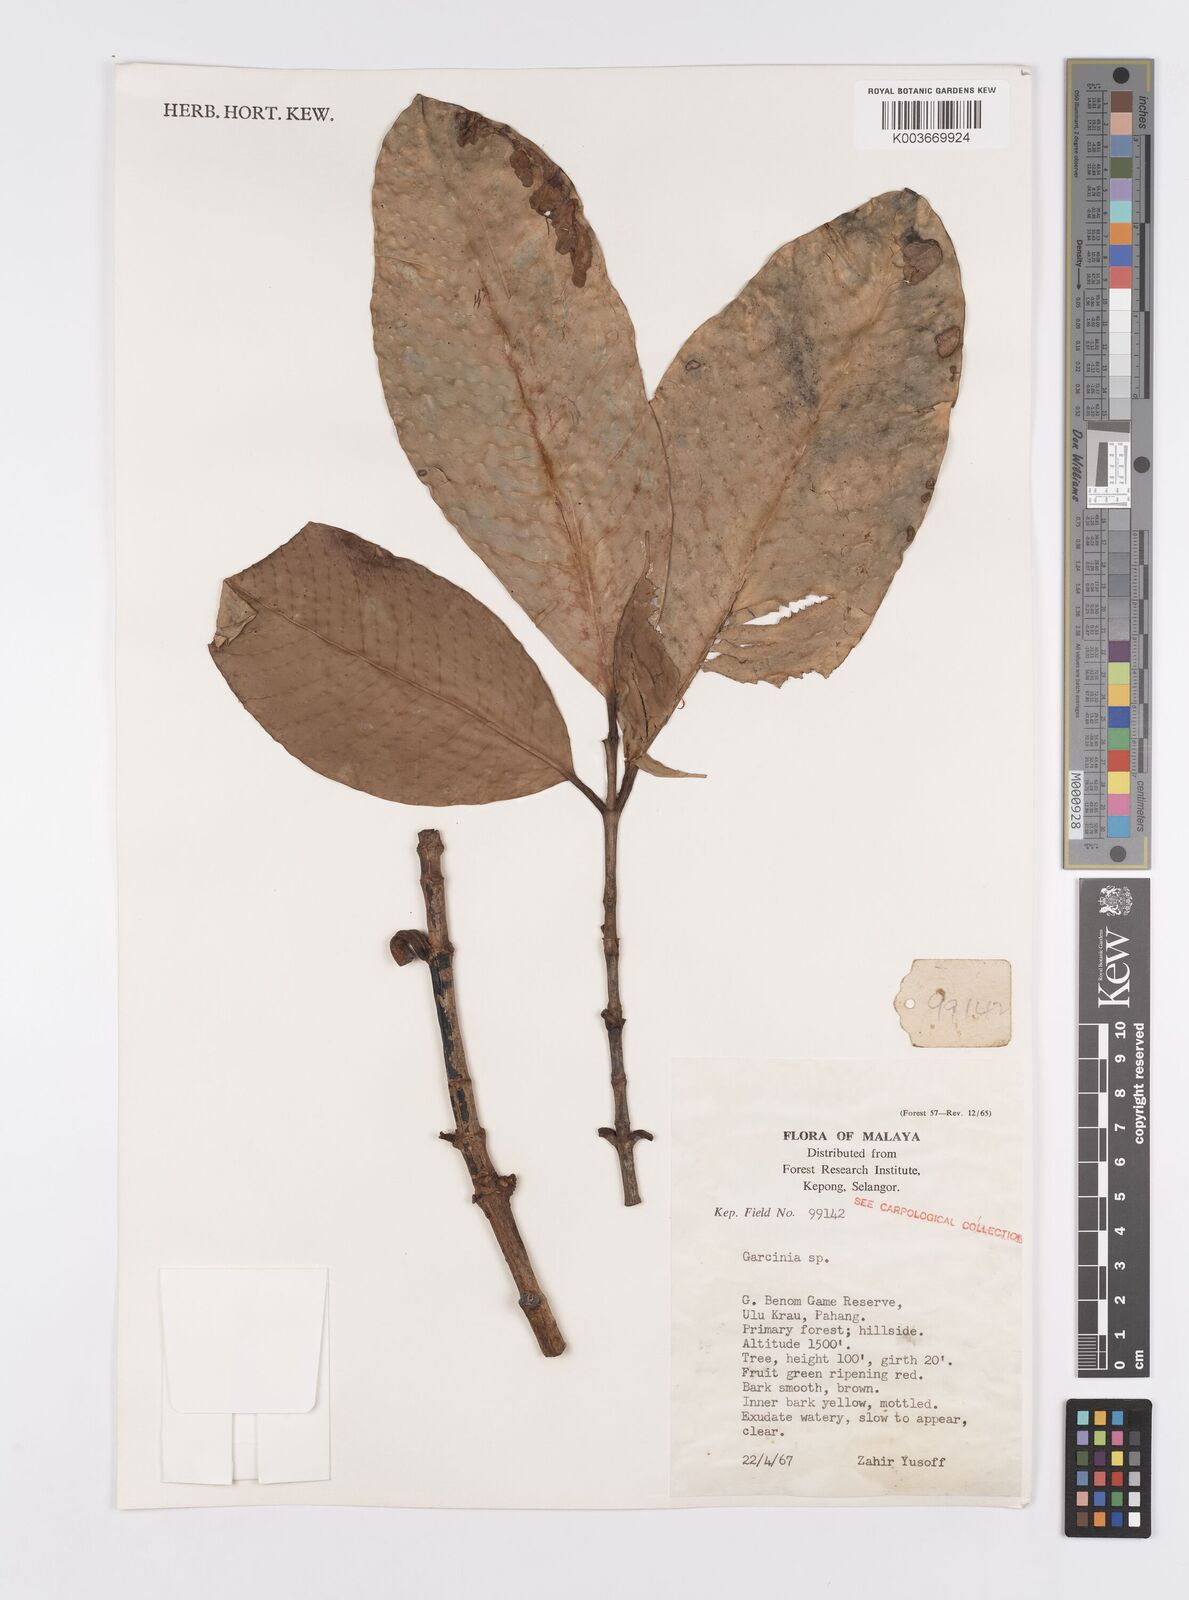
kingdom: Plantae
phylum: Tracheophyta
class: Magnoliopsida
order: Malpighiales
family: Clusiaceae
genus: Garcinia
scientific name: Garcinia
